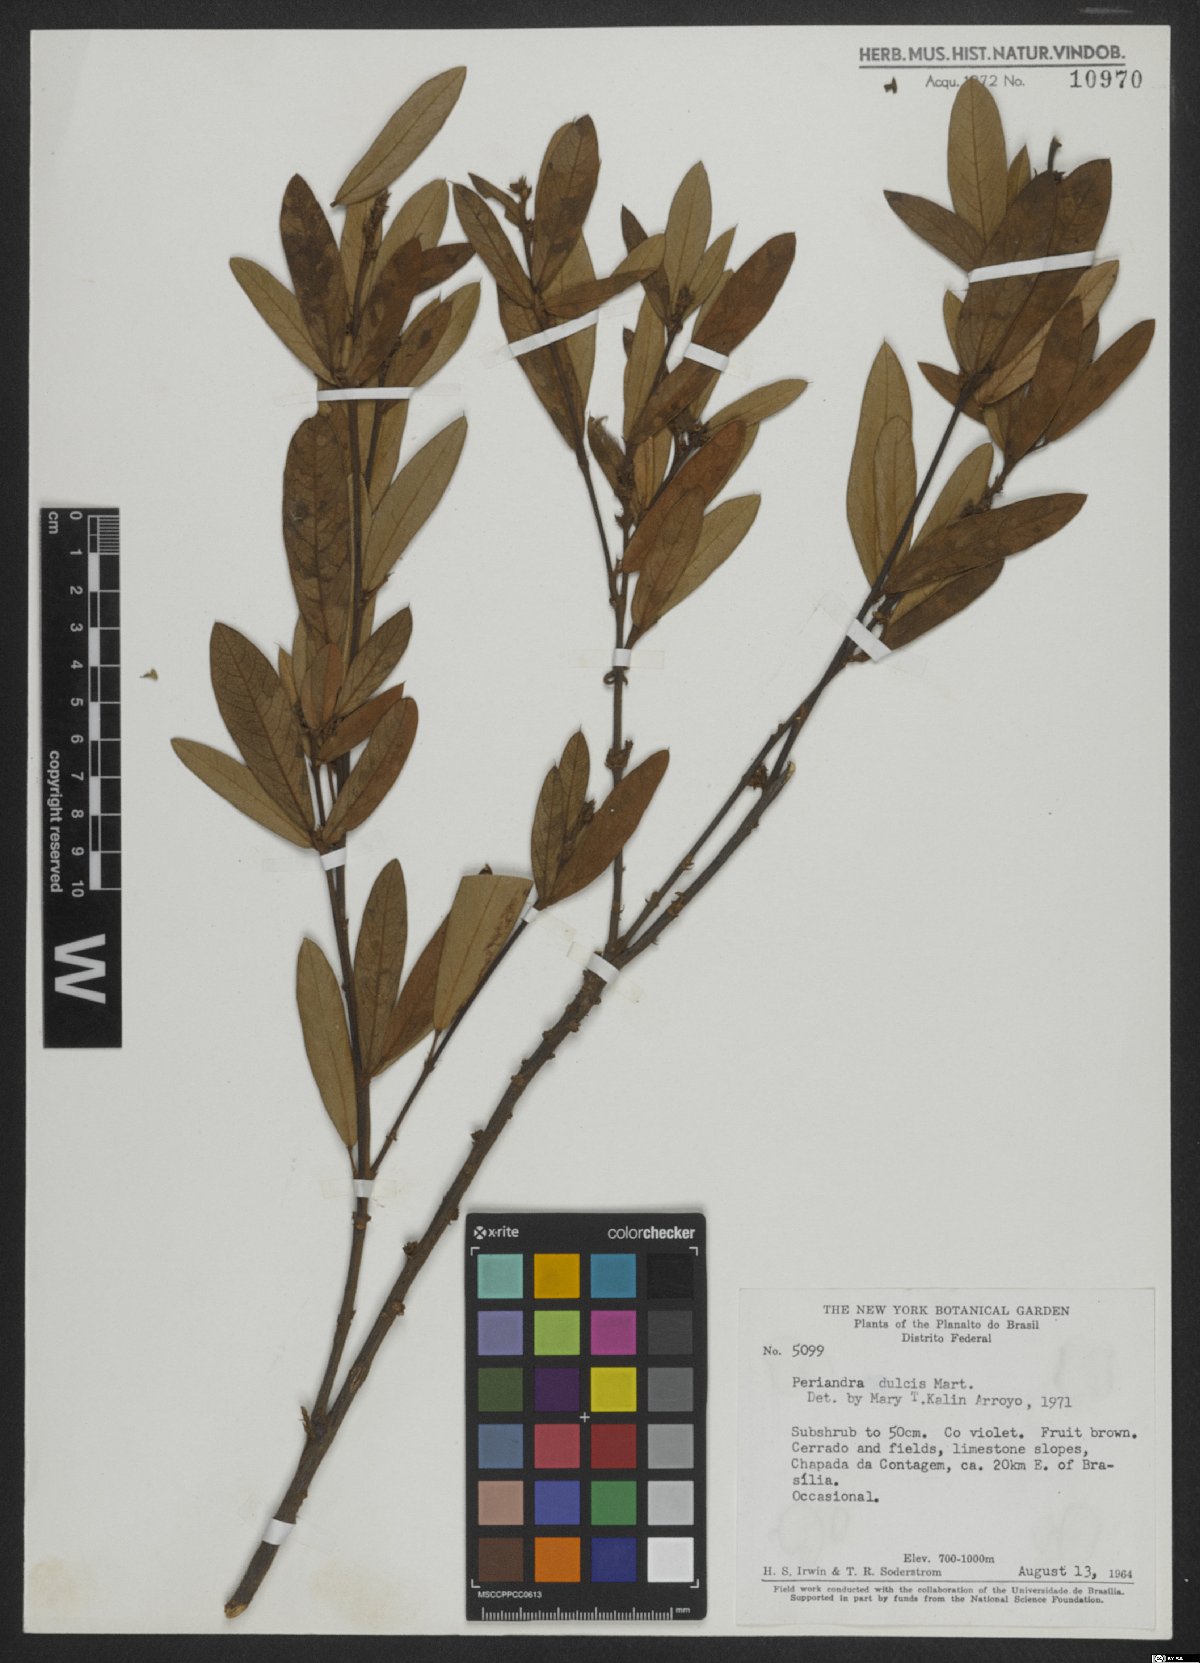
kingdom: Plantae
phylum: Tracheophyta
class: Magnoliopsida
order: Fabales
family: Fabaceae
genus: Periandra
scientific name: Periandra mediterranea
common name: Brazilian licorice
